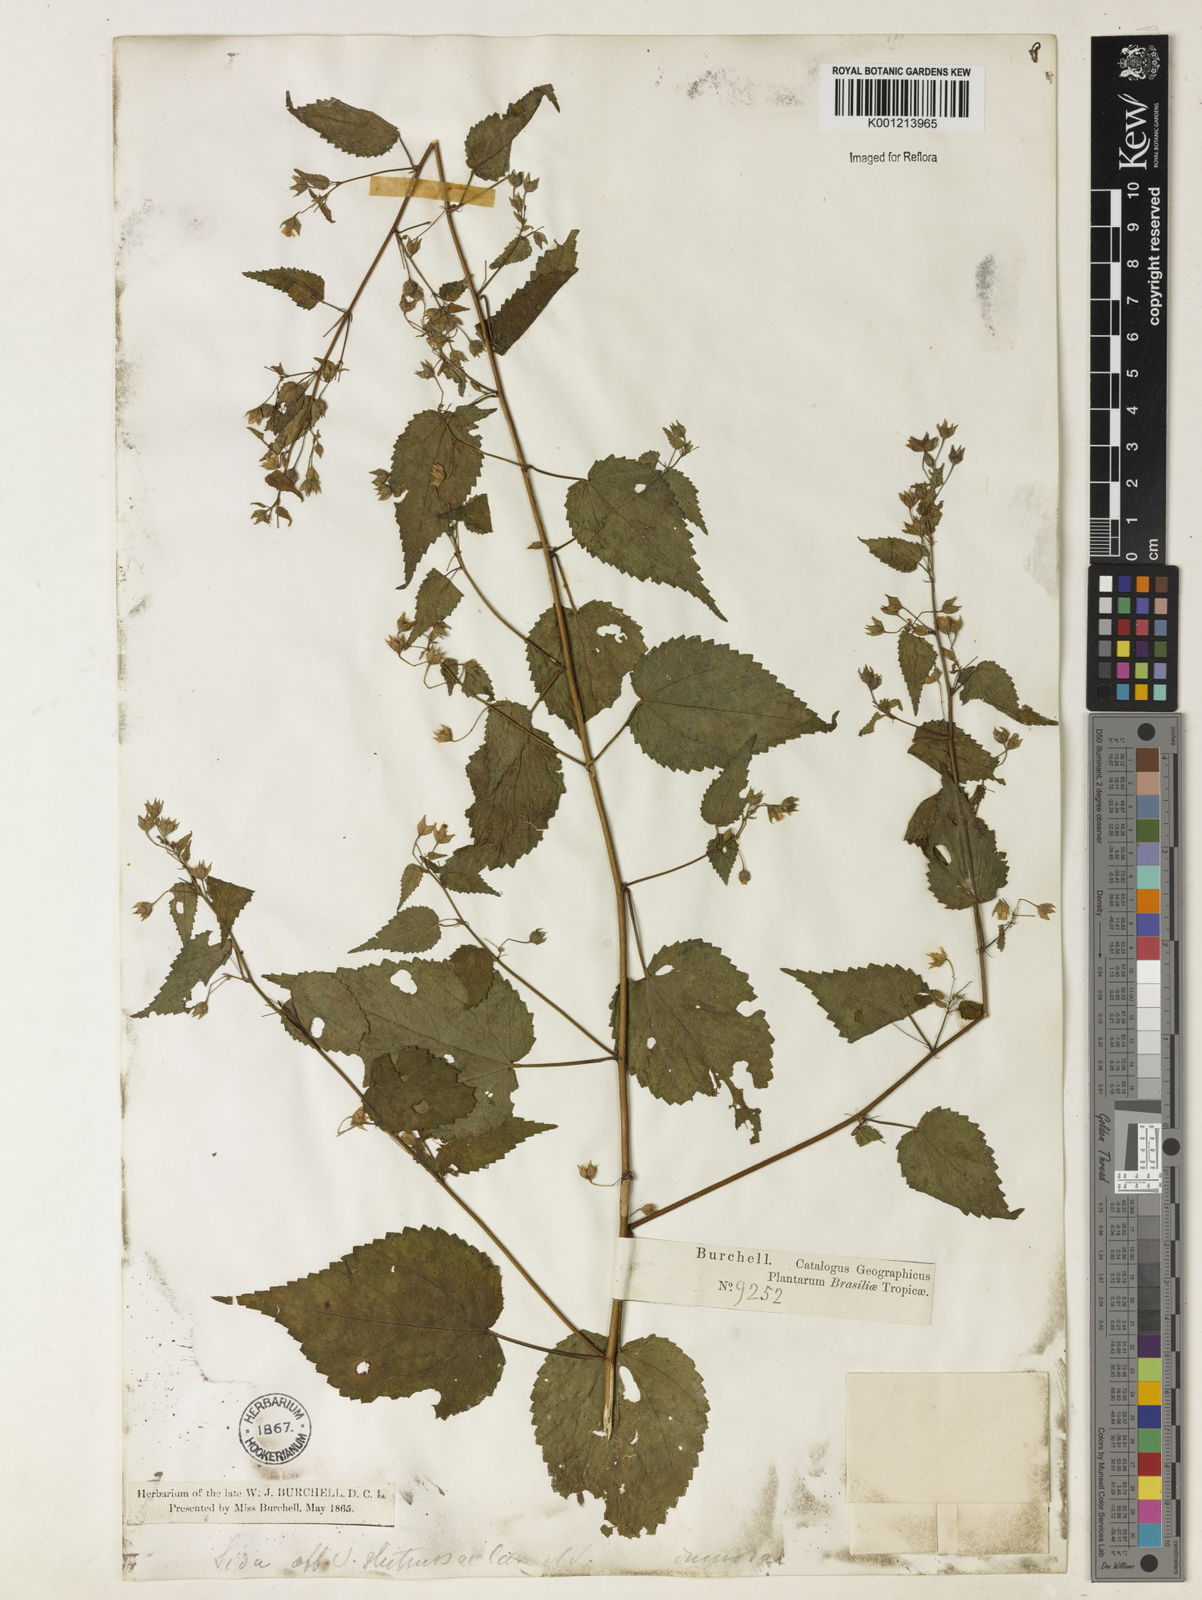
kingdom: Plantae
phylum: Tracheophyta
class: Magnoliopsida
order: Malvales
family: Malvaceae
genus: Sida
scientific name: Sida glutinosa
